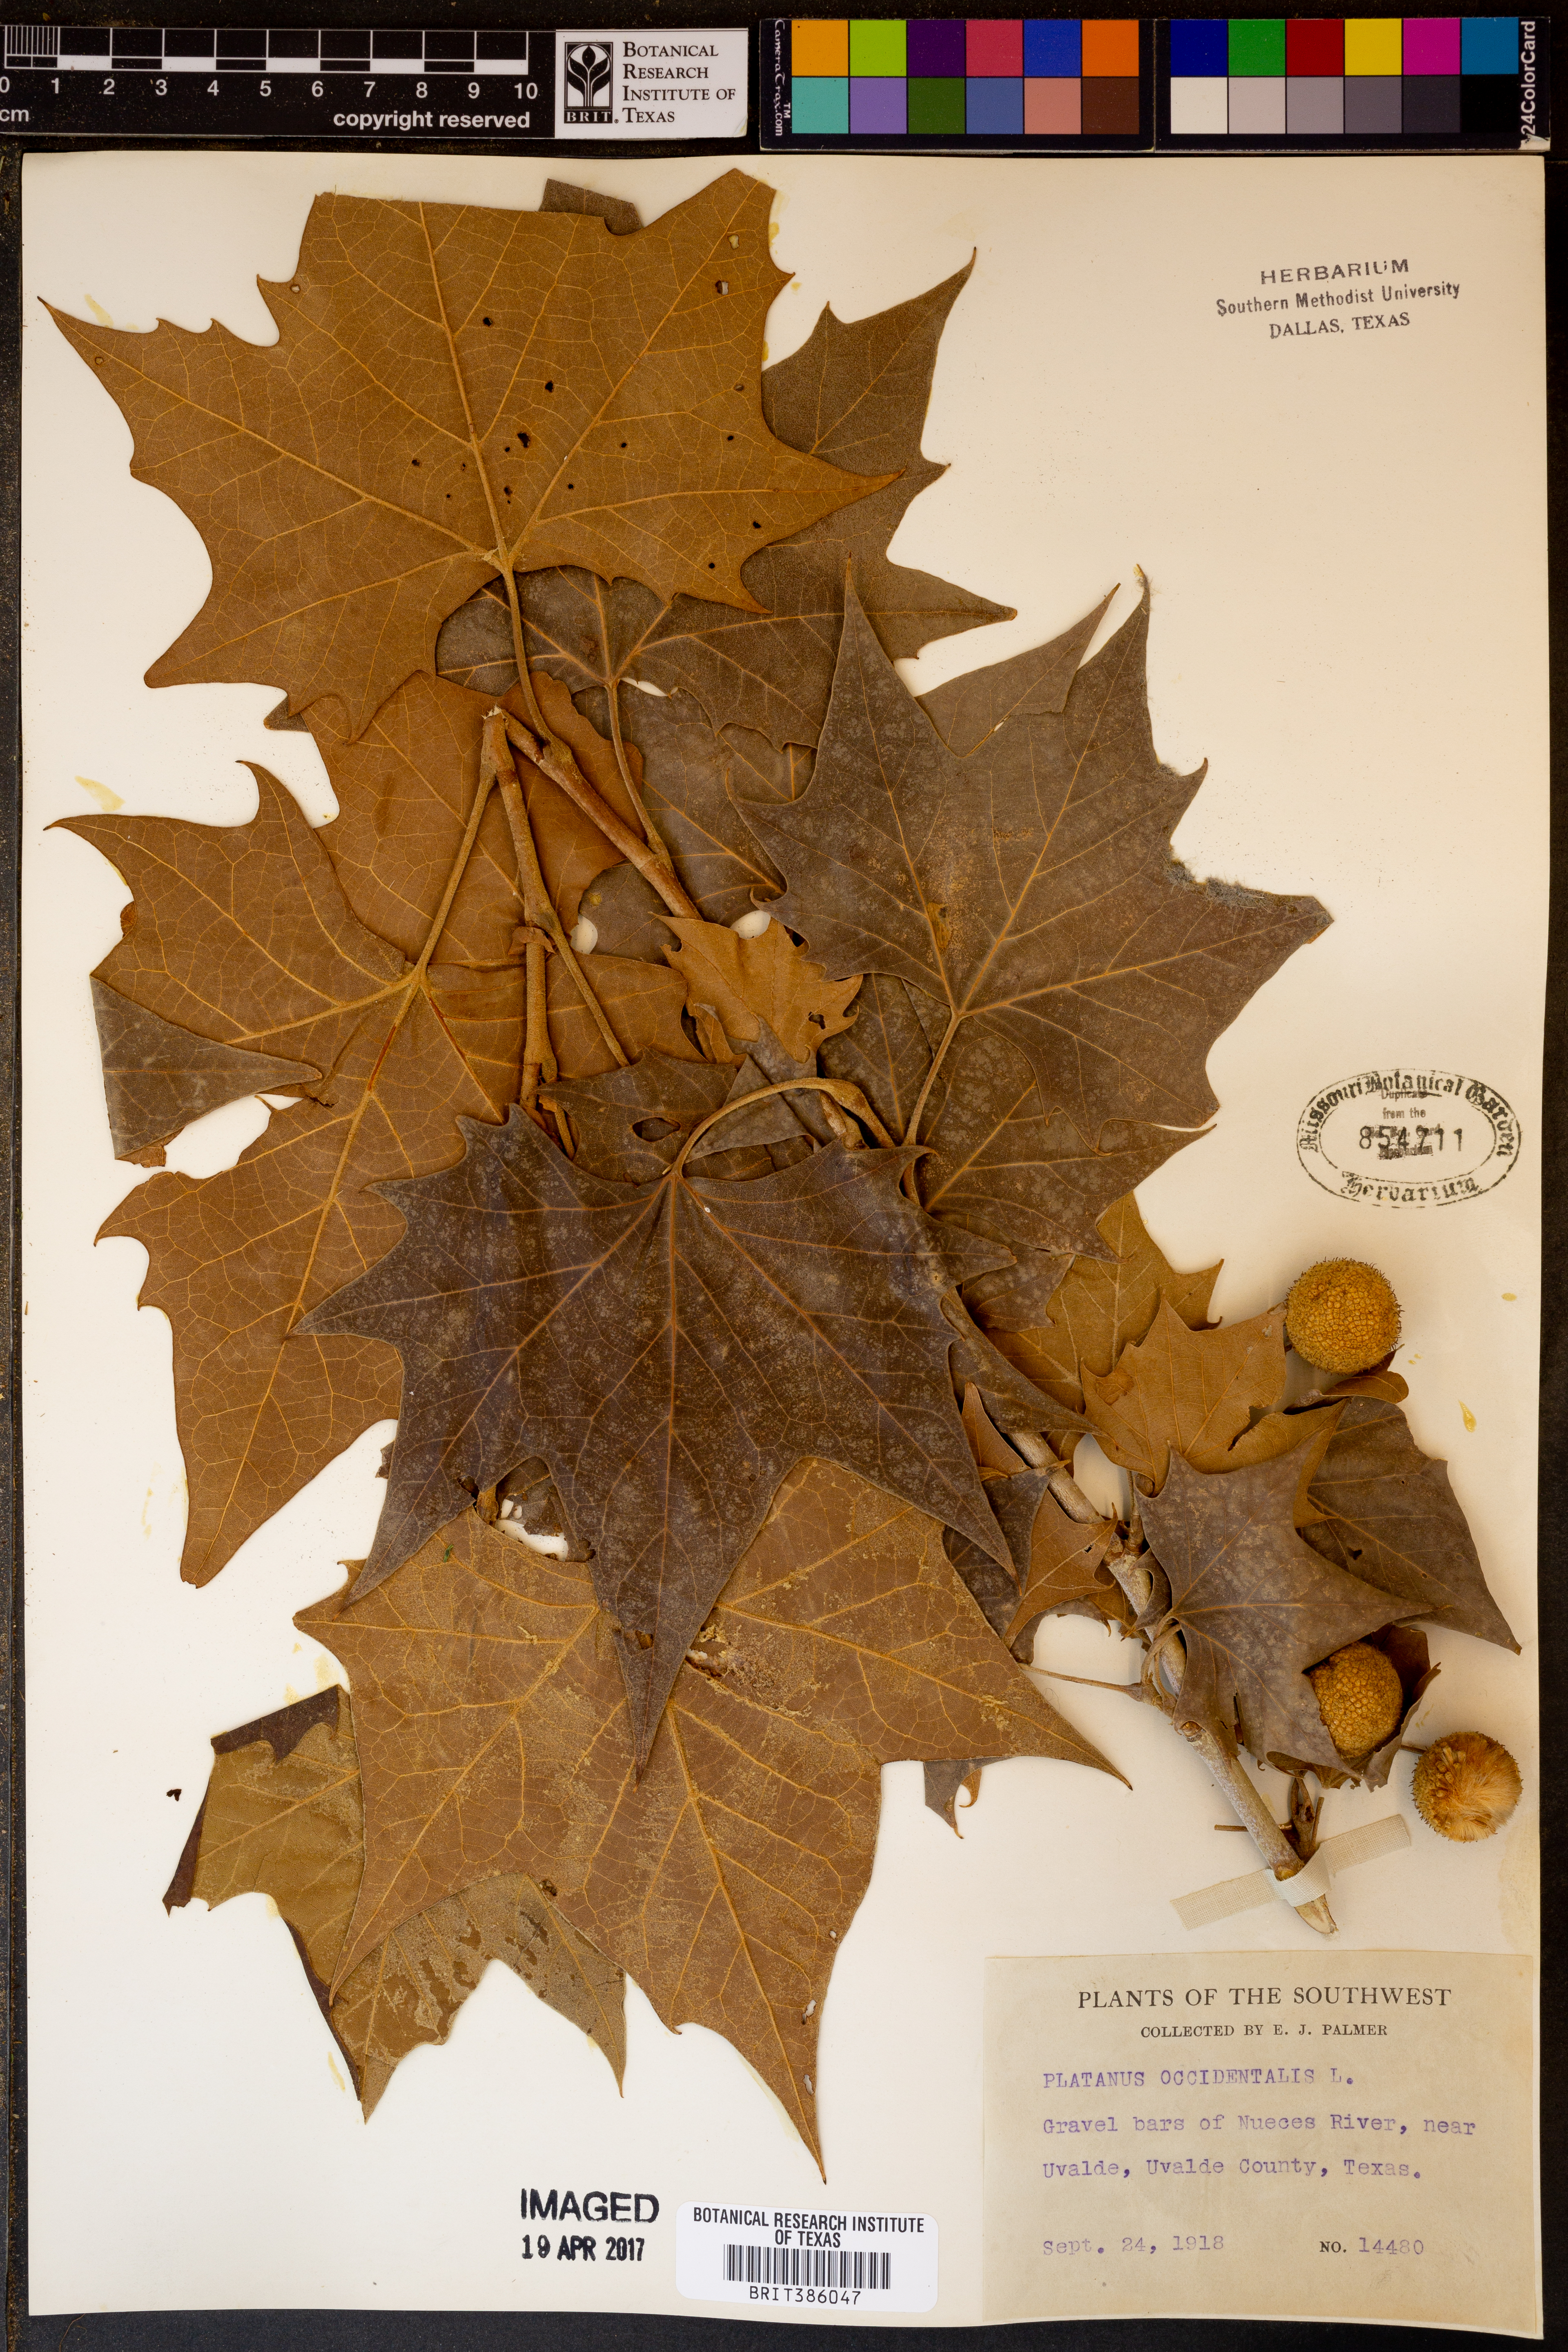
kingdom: Plantae
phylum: Tracheophyta
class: Magnoliopsida
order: Proteales
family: Platanaceae
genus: Platanus
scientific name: Platanus occidentalis
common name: American sycamore
